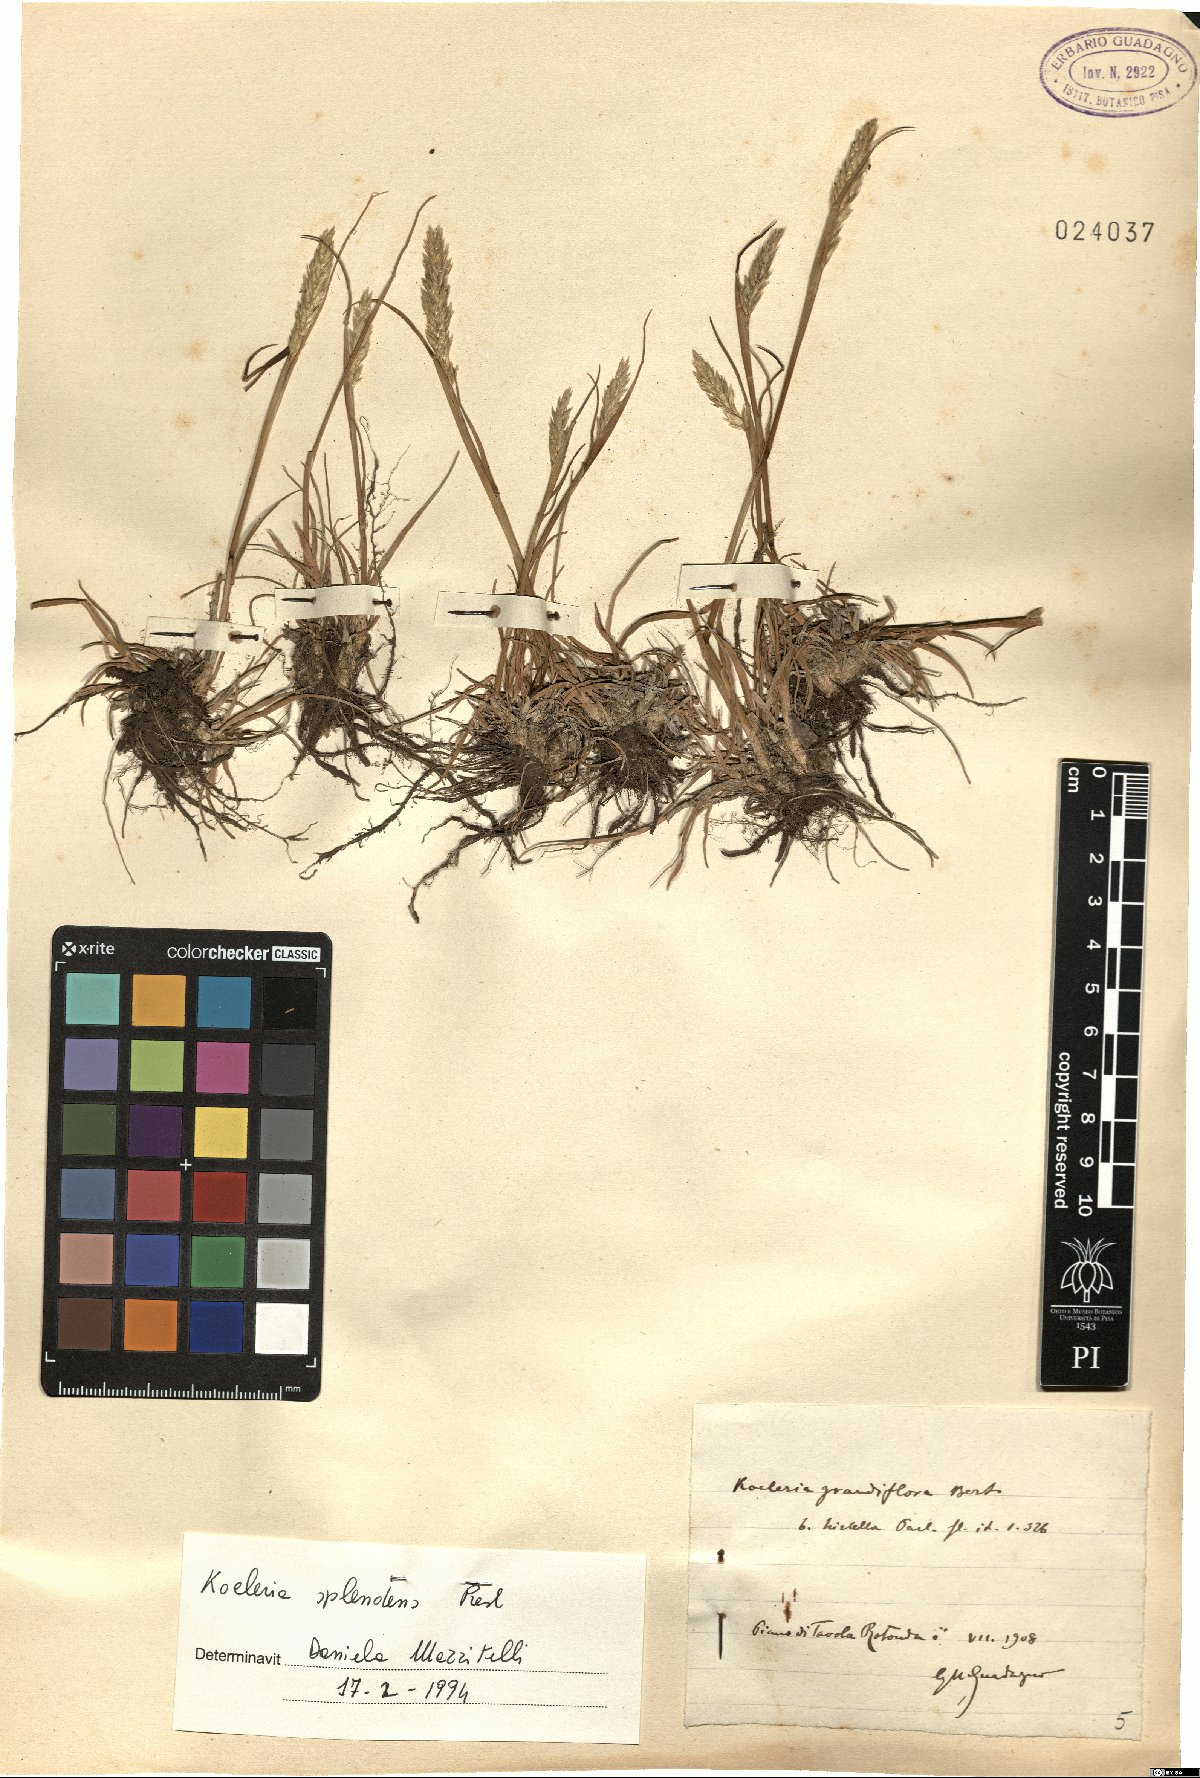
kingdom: Plantae
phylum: Tracheophyta
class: Liliopsida
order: Poales
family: Poaceae
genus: Koeleria
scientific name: Koeleria splendens
